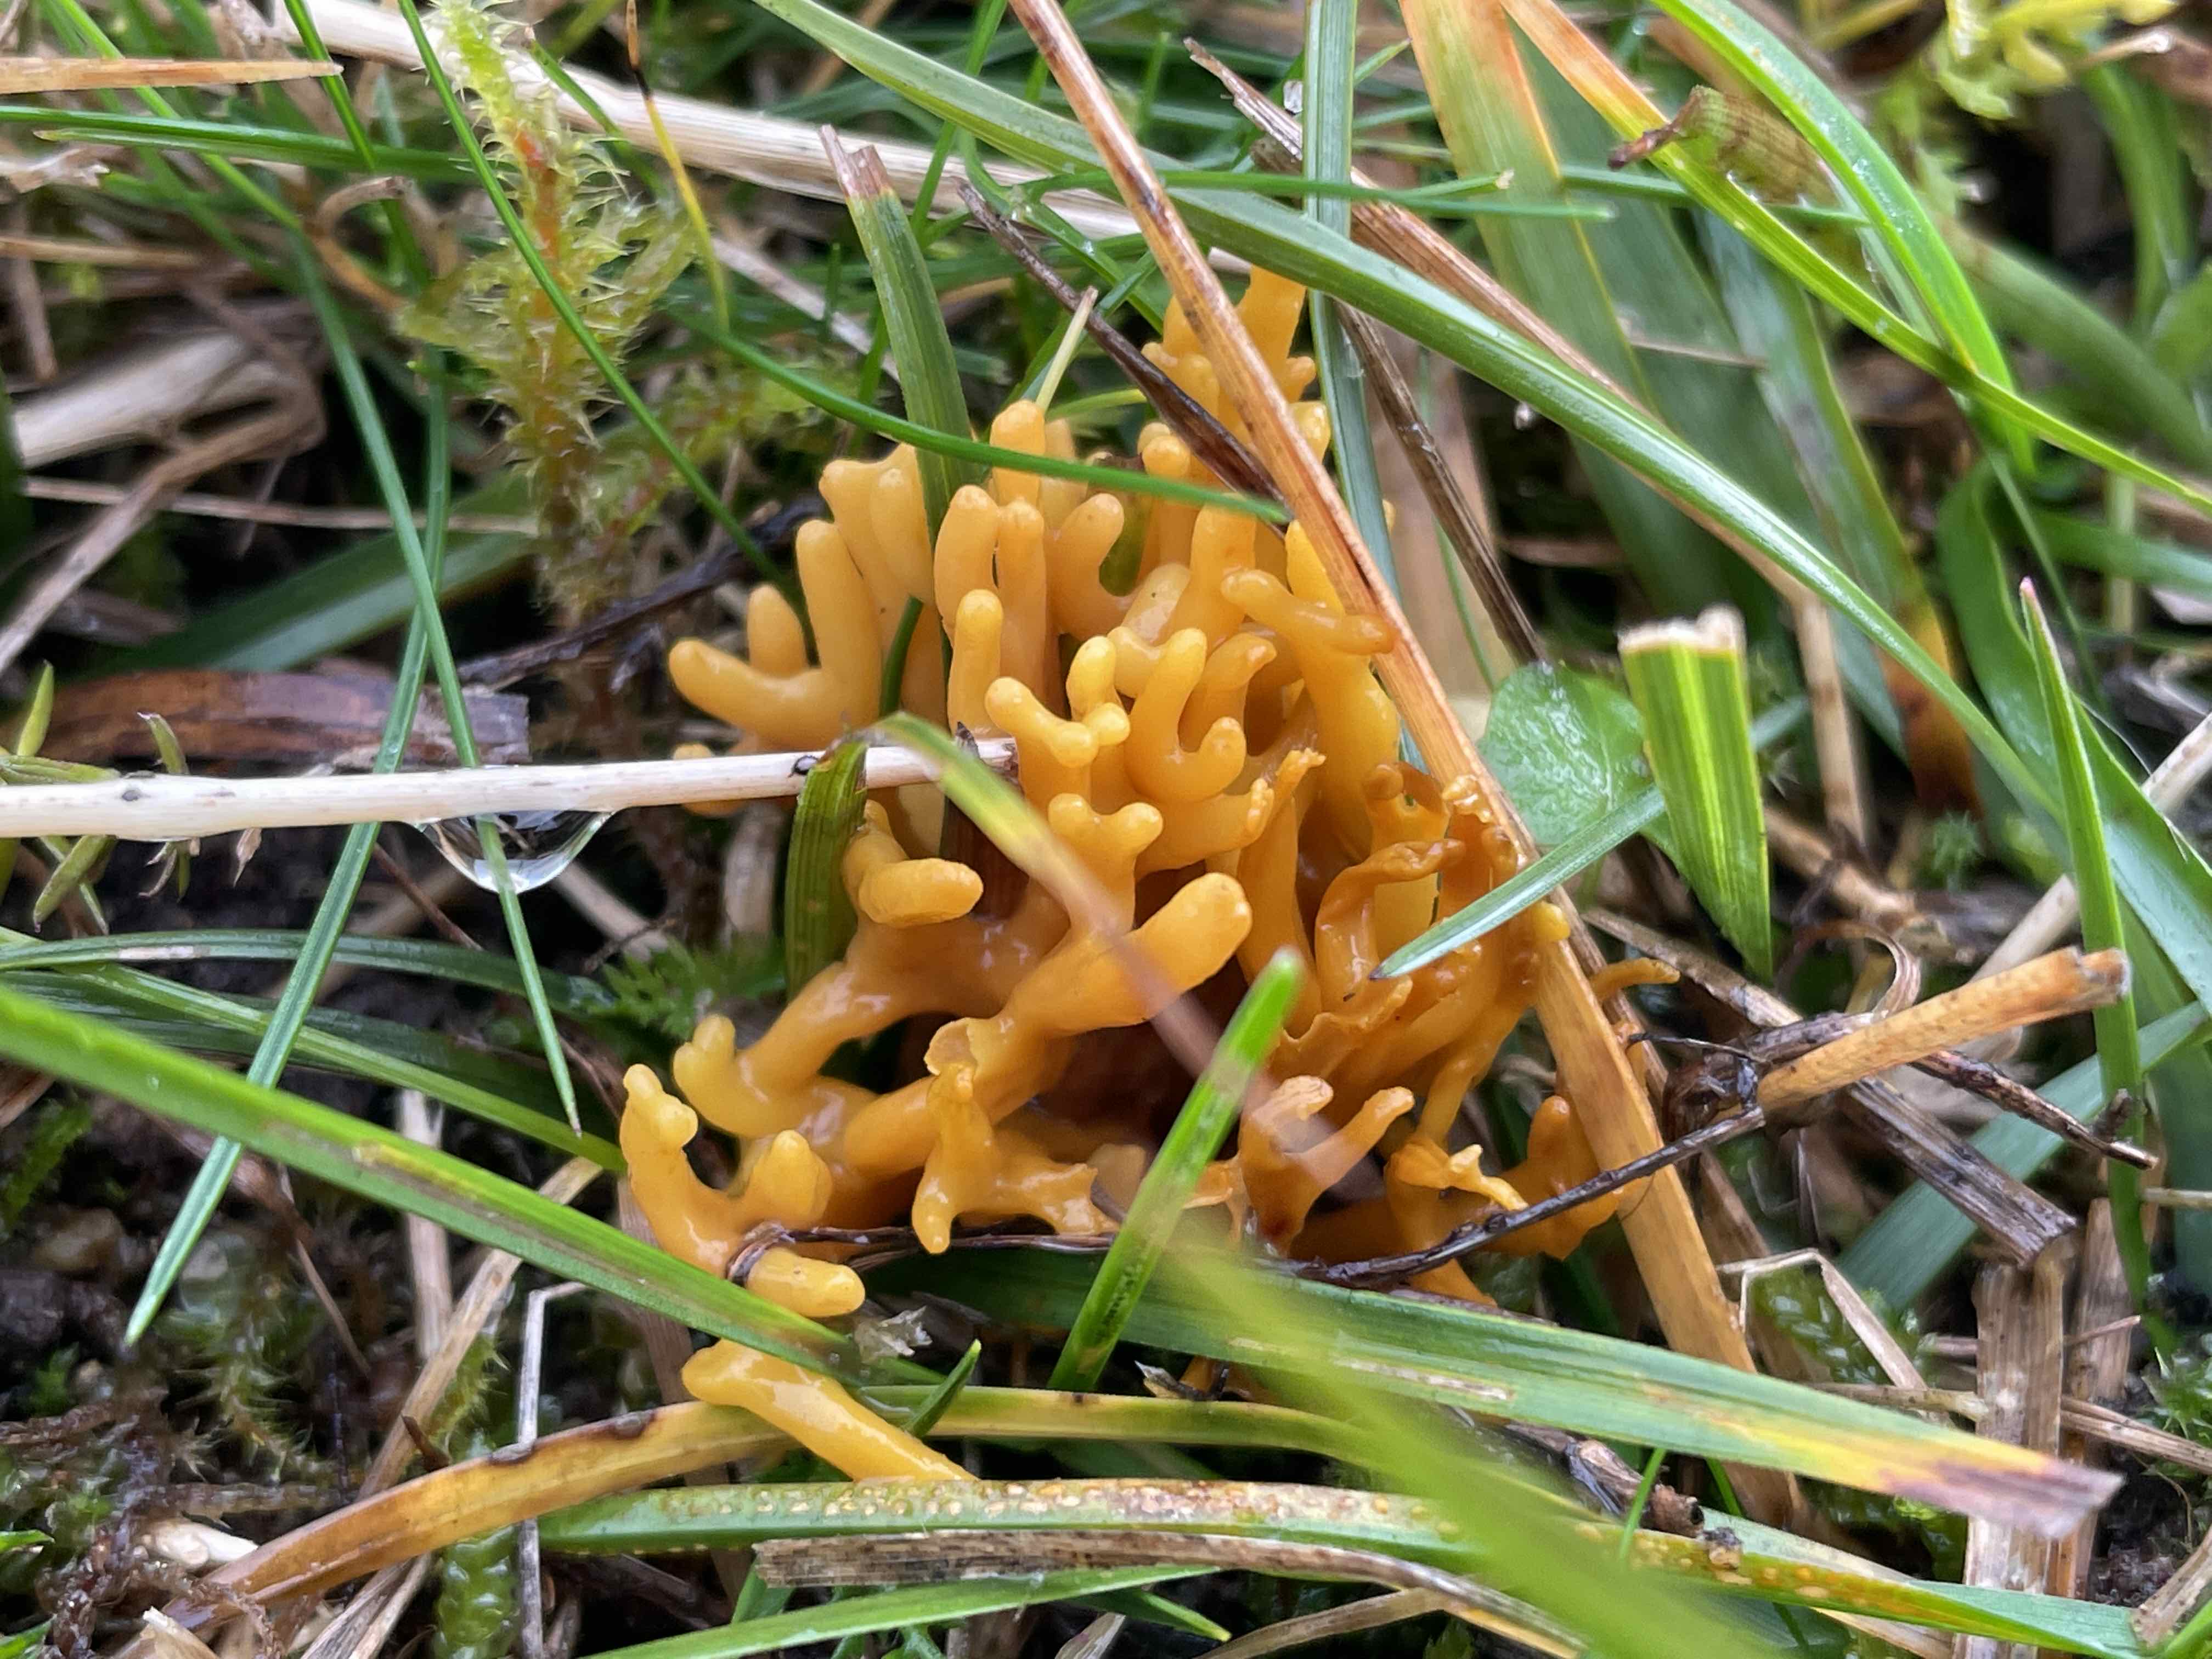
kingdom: Fungi
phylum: Basidiomycota
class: Agaricomycetes
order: Agaricales
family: Clavariaceae
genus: Clavulinopsis
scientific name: Clavulinopsis corniculata
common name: eng-køllesvamp
